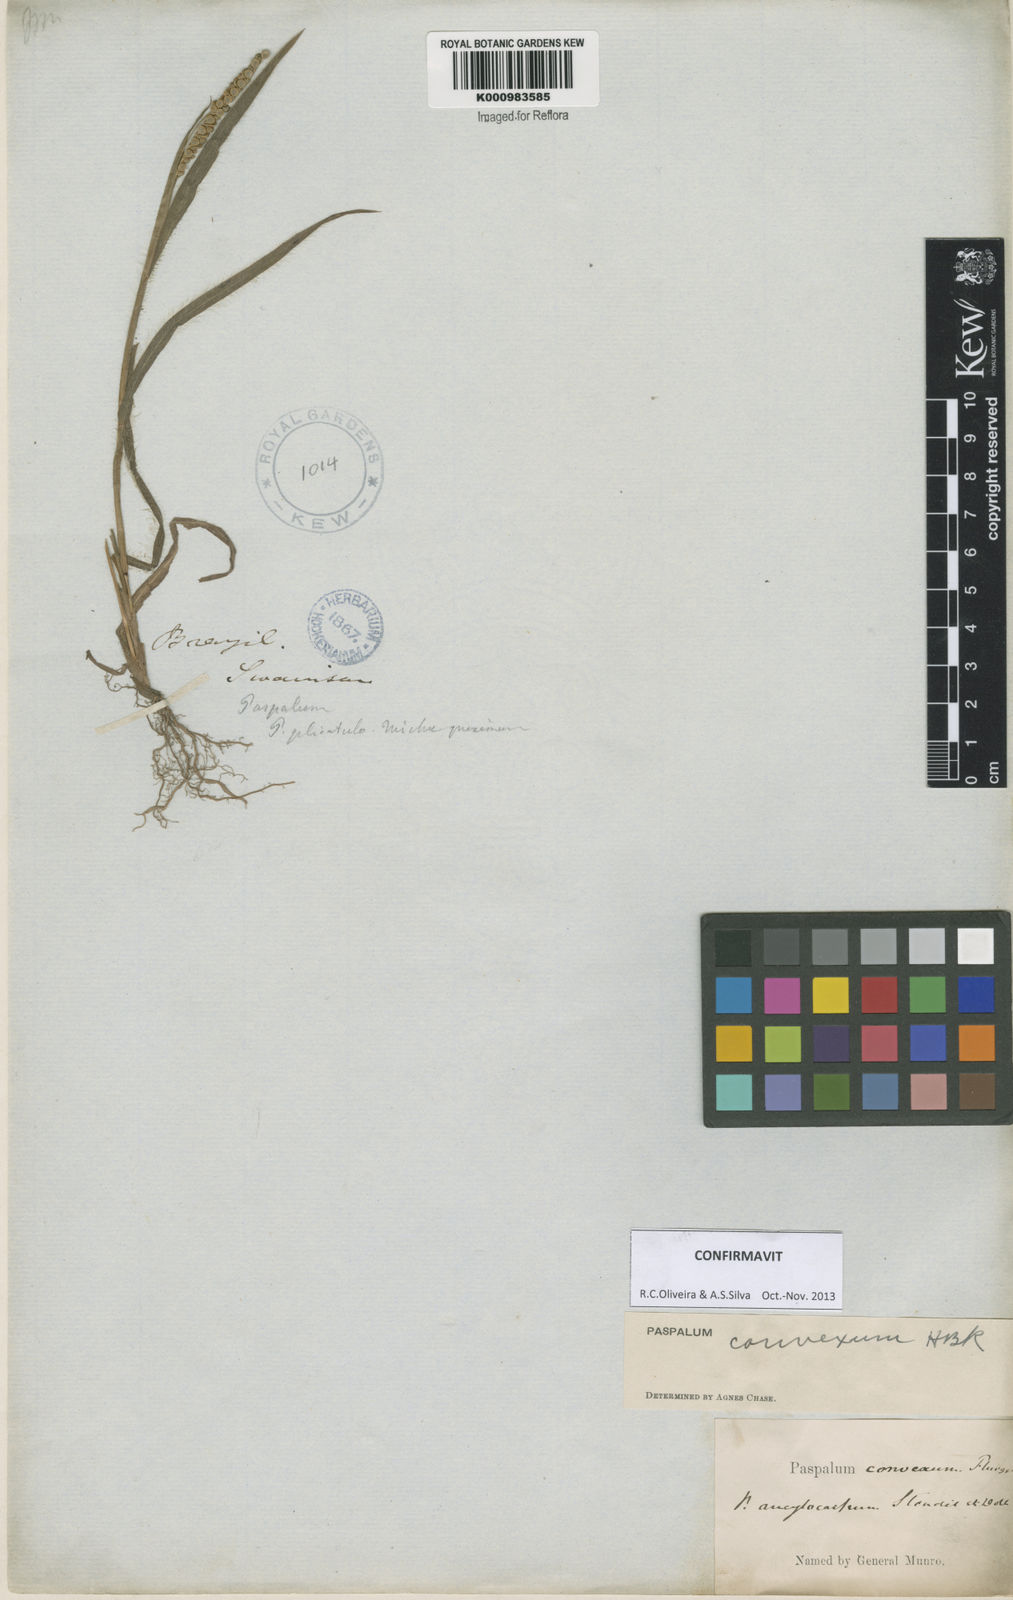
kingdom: Plantae
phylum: Tracheophyta
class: Liliopsida
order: Poales
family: Poaceae
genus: Paspalum
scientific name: Paspalum
